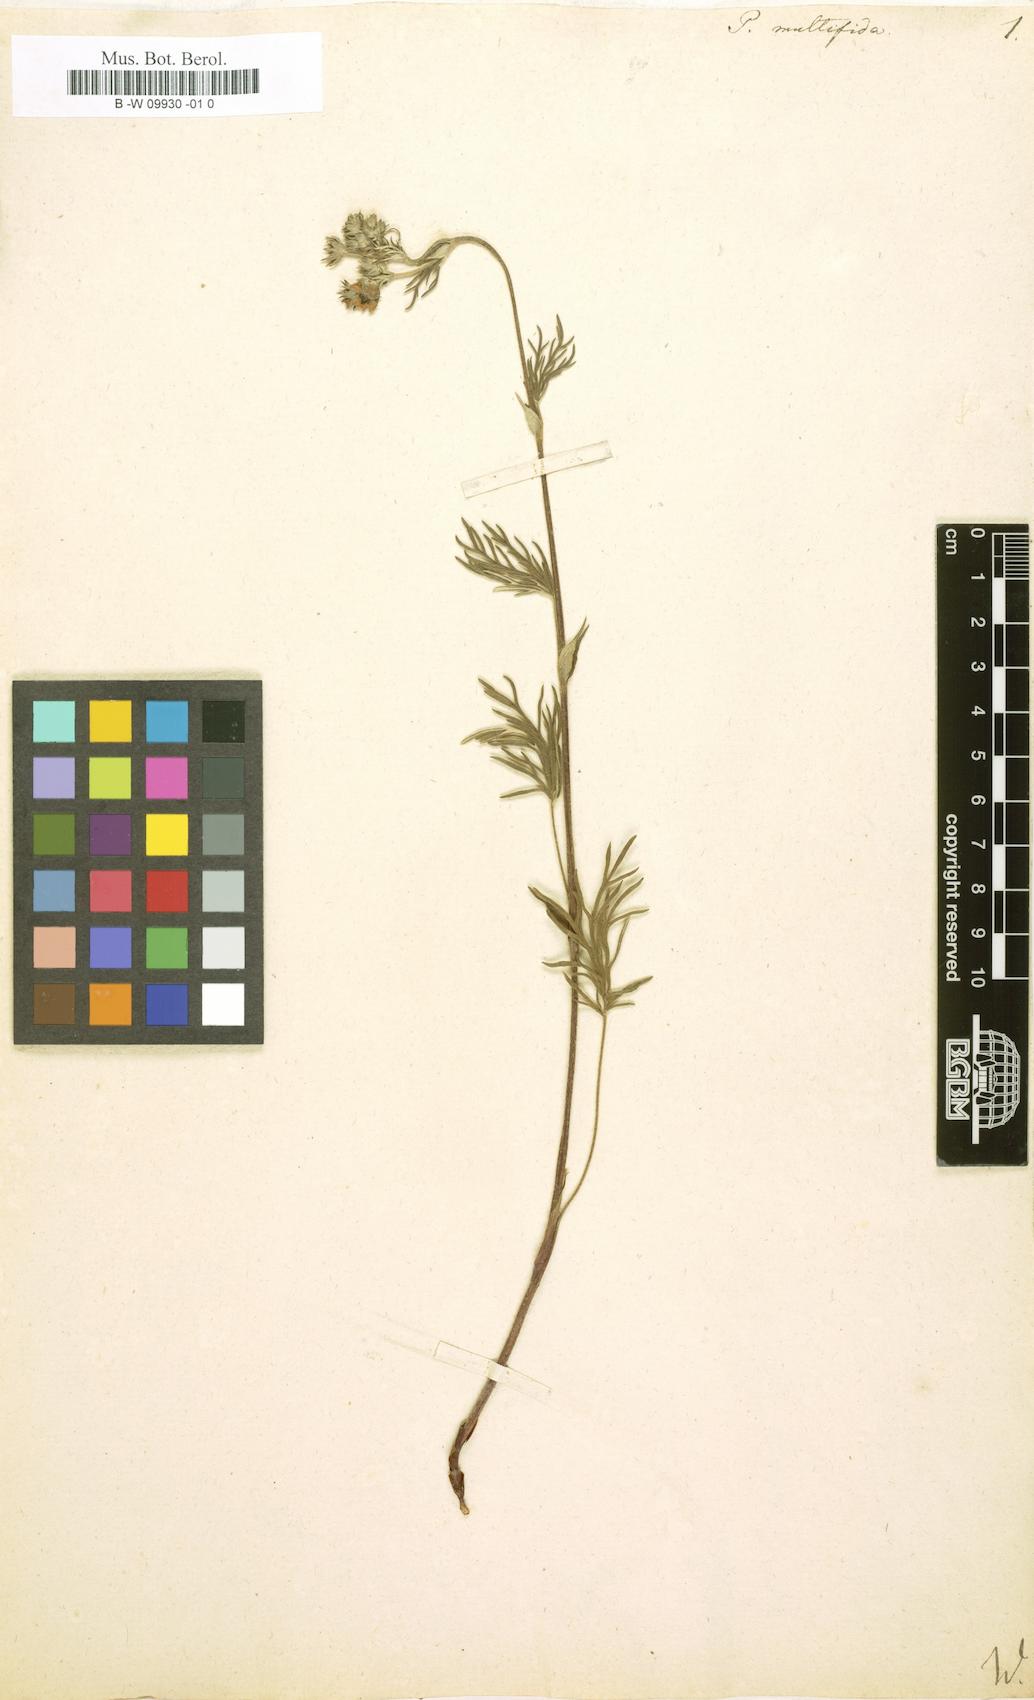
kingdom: Plantae
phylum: Tracheophyta
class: Magnoliopsida
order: Rosales
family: Rosaceae
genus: Potentilla
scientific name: Potentilla multifida
